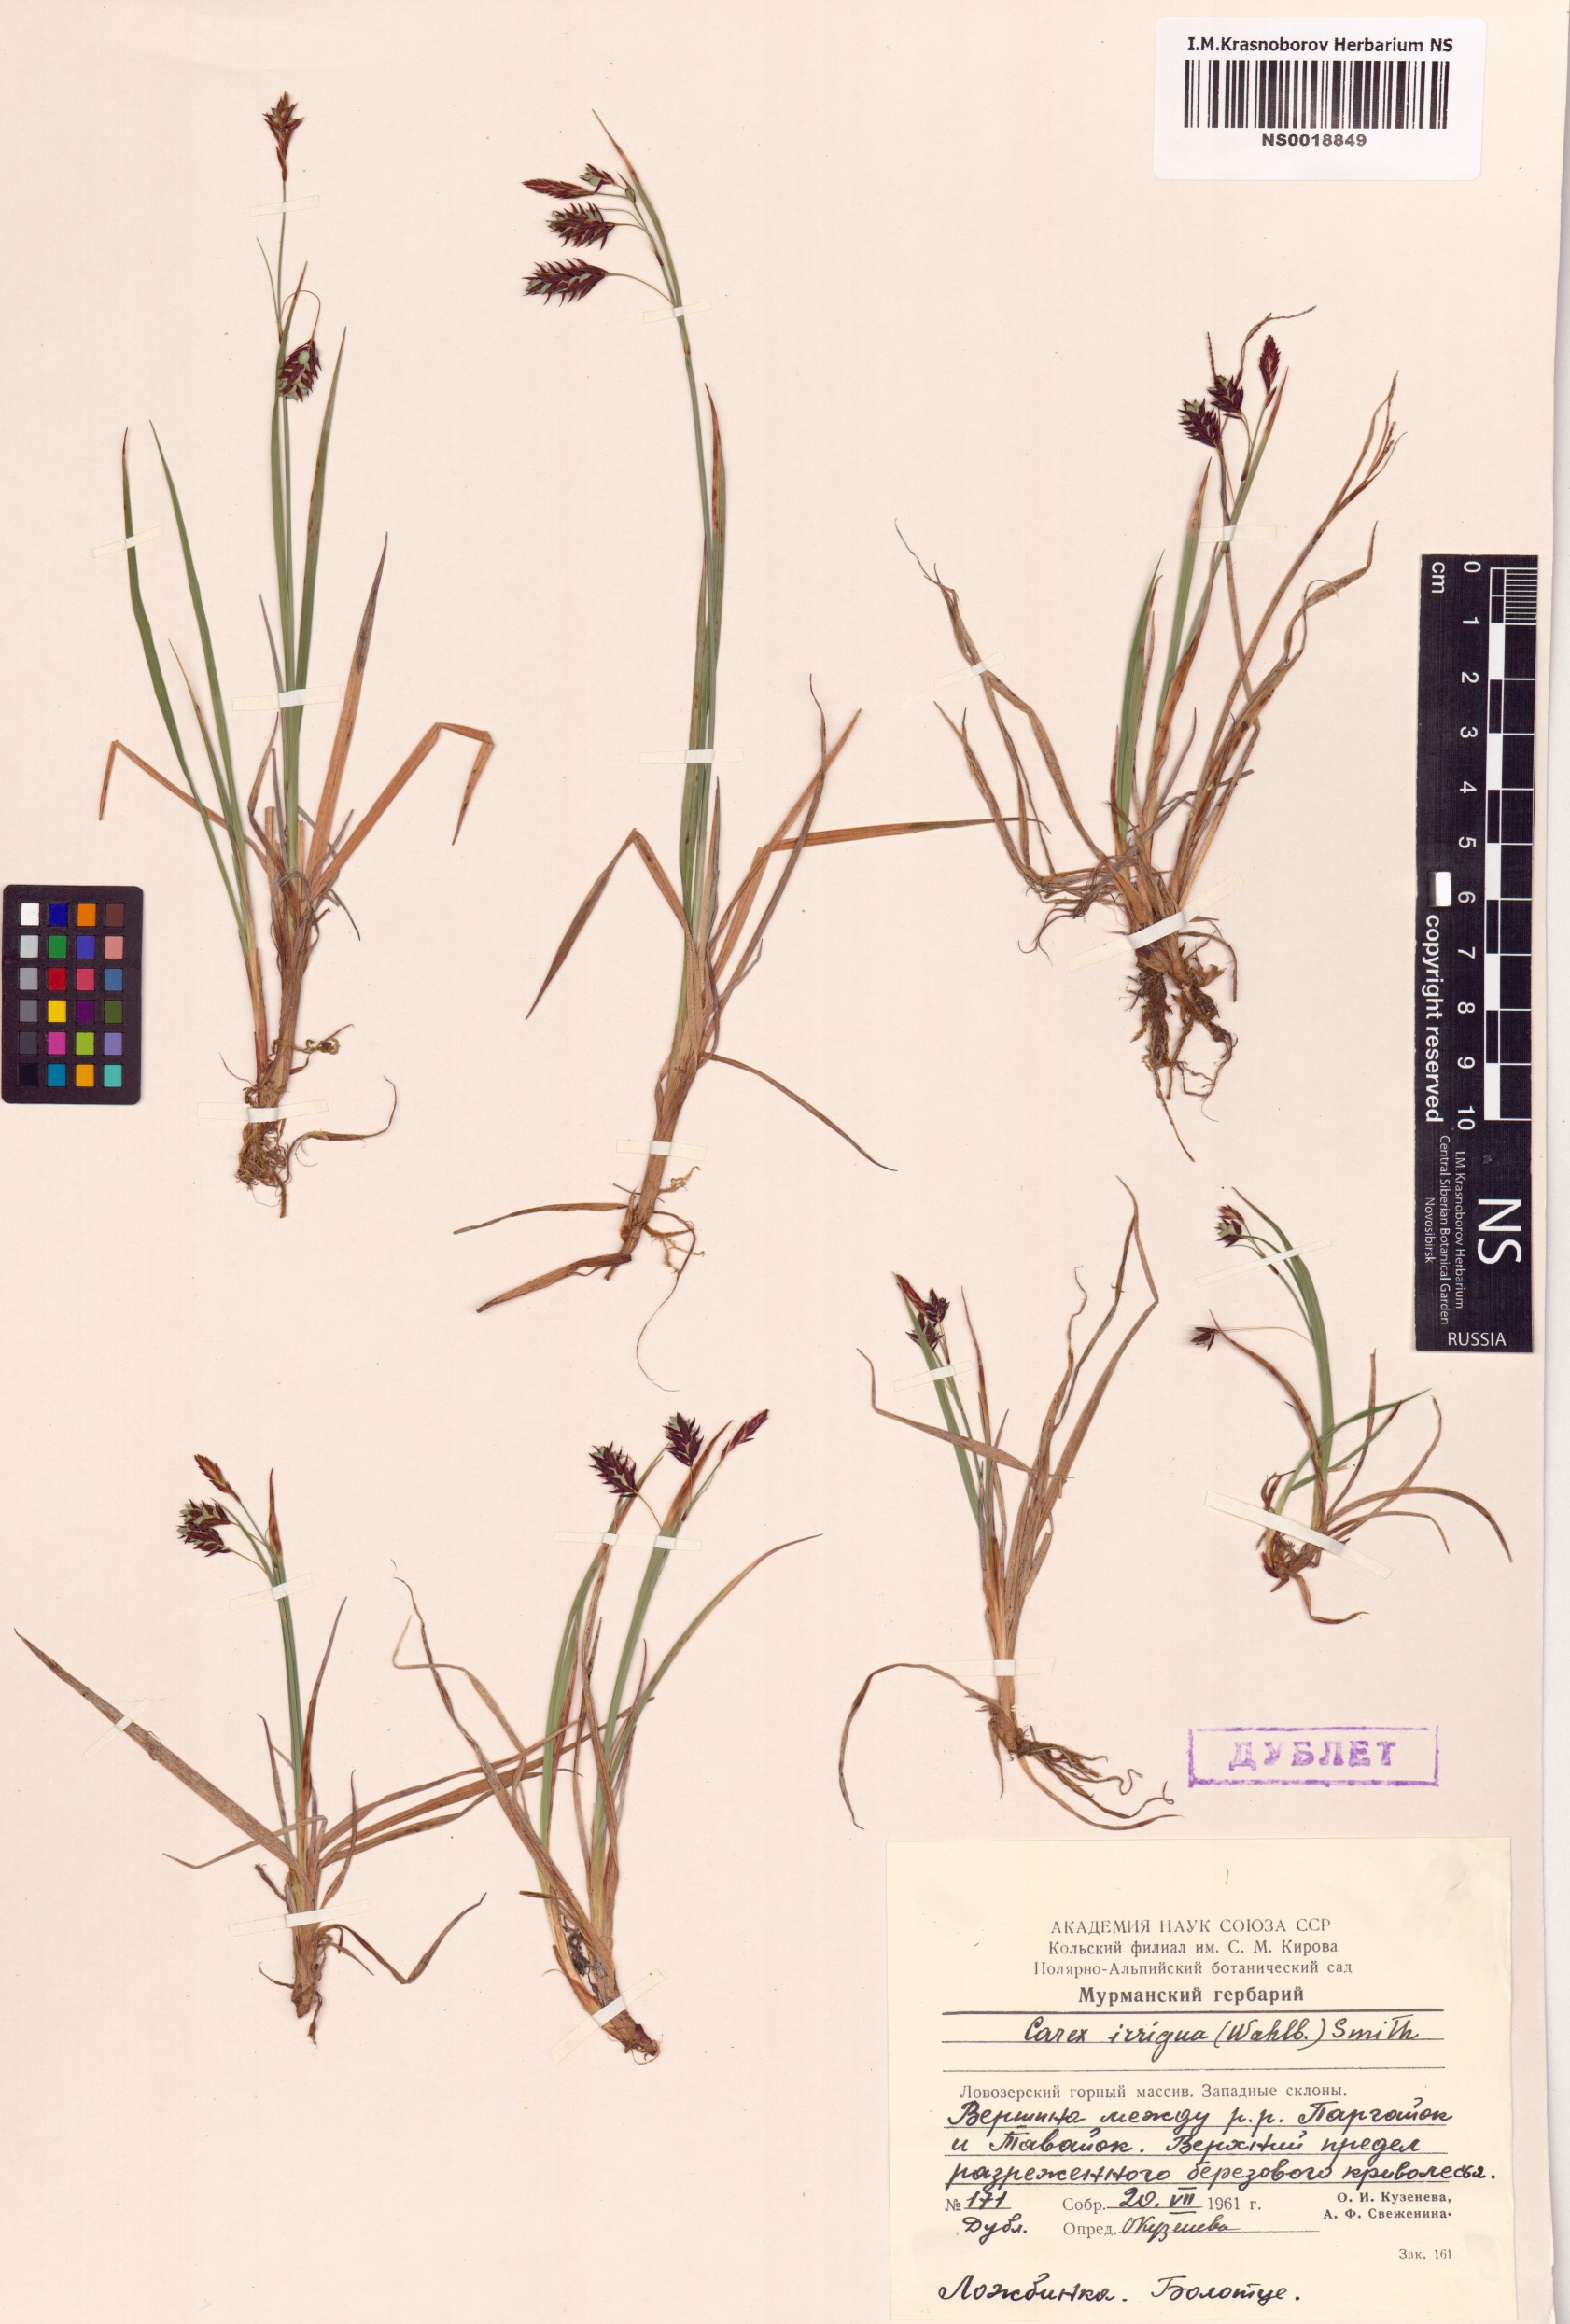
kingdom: Plantae
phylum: Tracheophyta
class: Liliopsida
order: Poales
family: Cyperaceae
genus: Carex
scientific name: Carex magellanica
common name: Bog sedge
